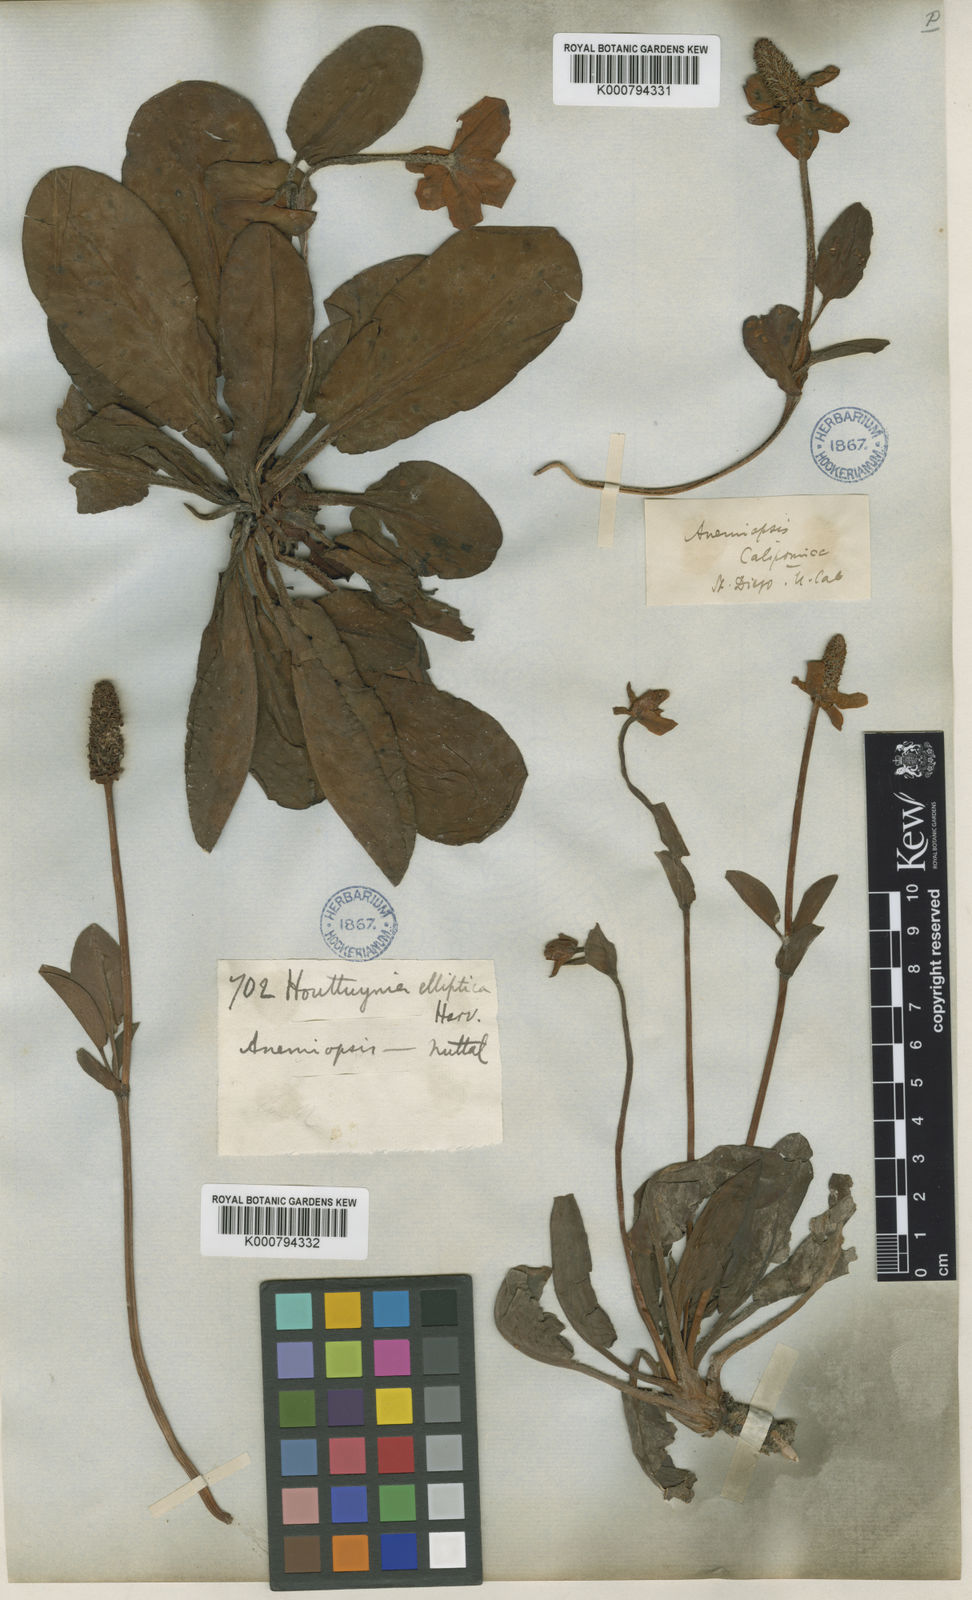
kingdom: Plantae
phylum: Tracheophyta
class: Magnoliopsida
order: Piperales
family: Saururaceae
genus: Anemopsis
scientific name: Anemopsis californica
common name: Apache-beads
